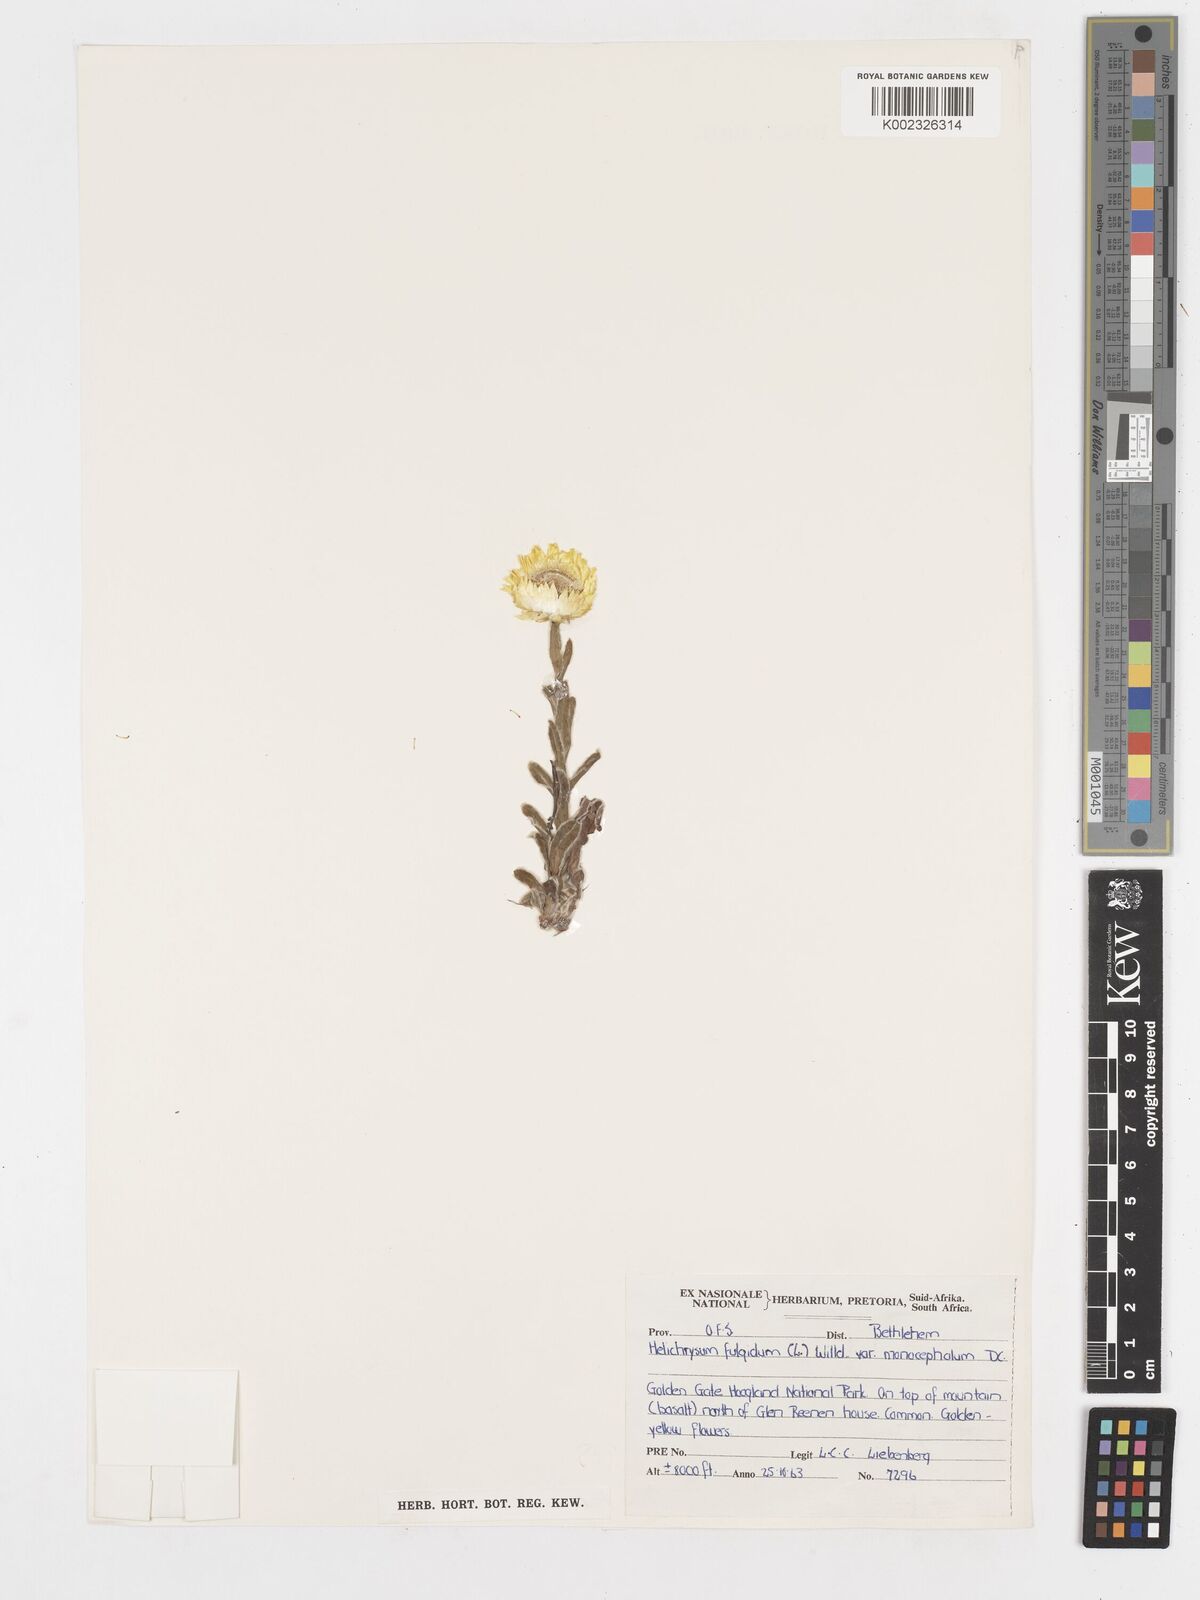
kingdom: Plantae
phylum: Tracheophyta
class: Magnoliopsida
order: Asterales
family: Asteraceae
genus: Helichrysum
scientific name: Helichrysum aureum
